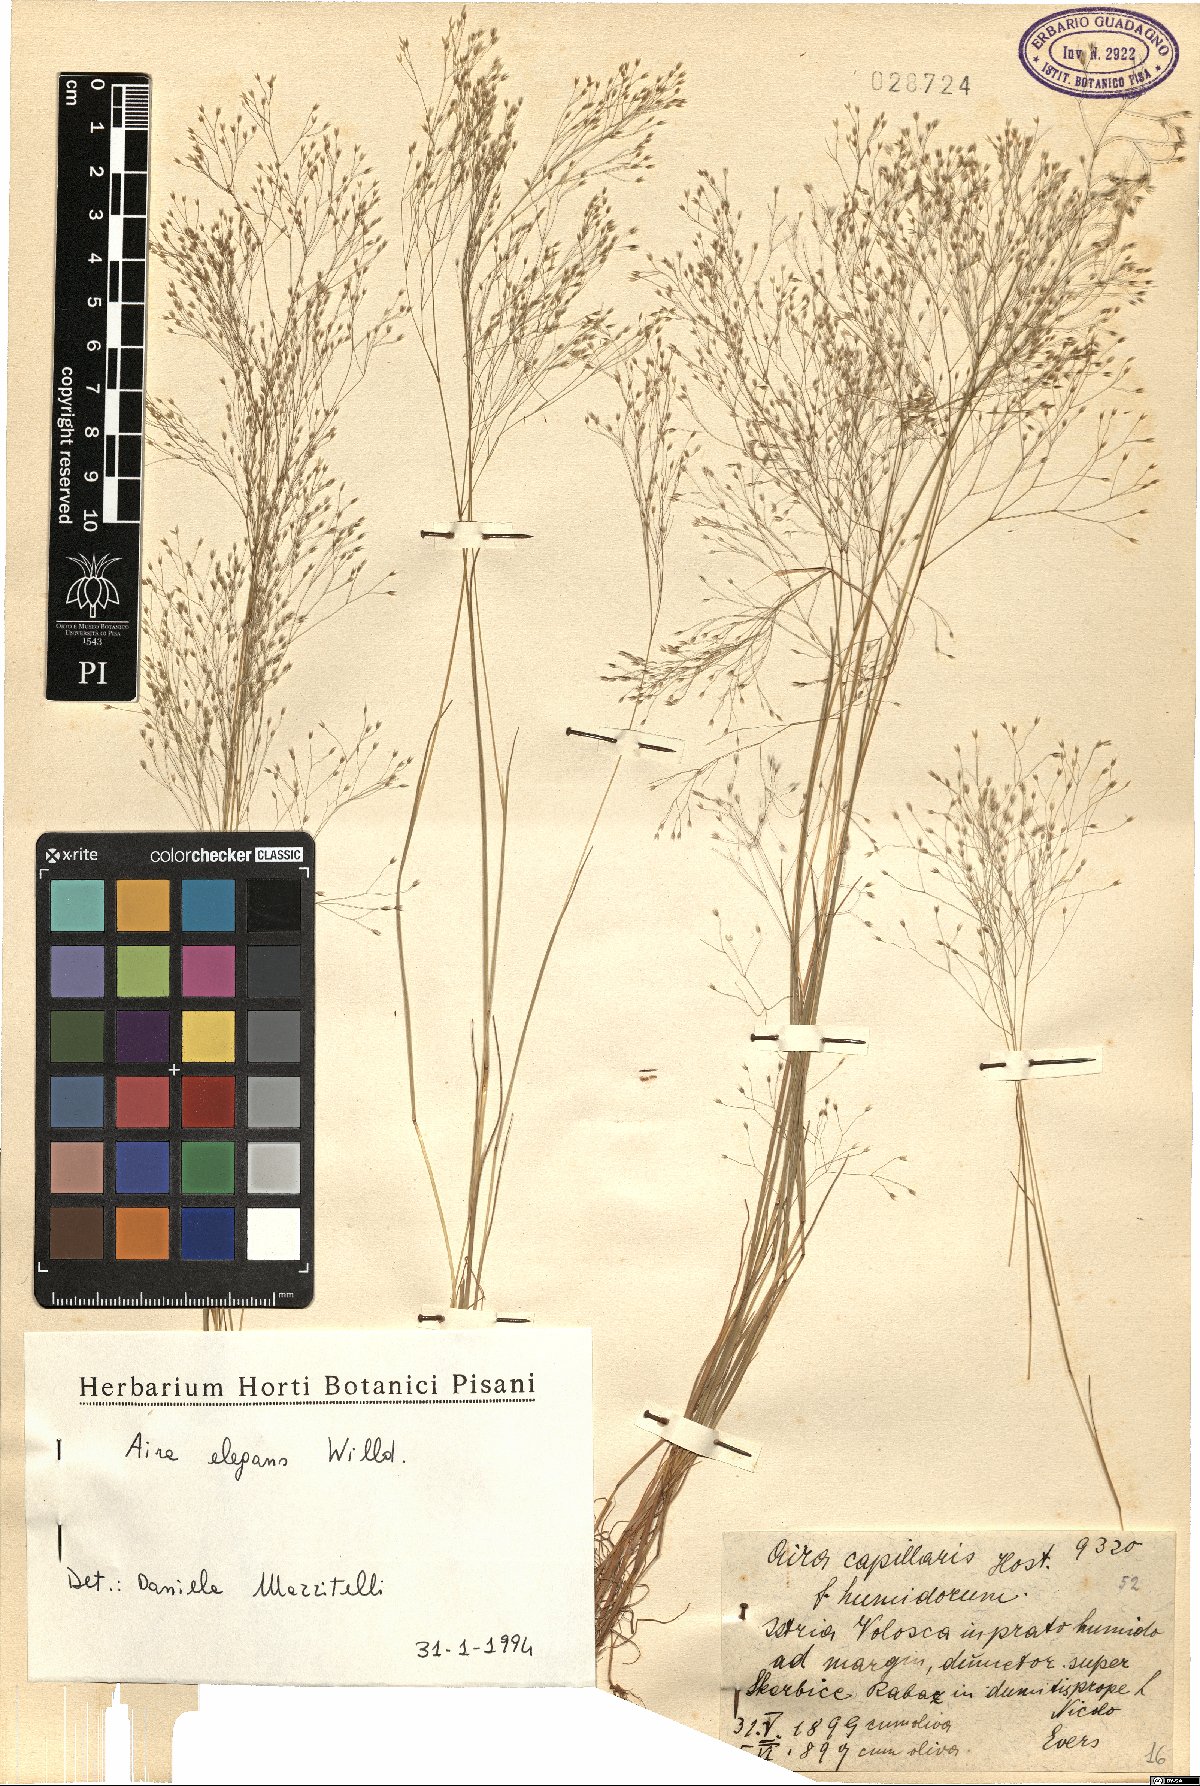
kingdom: Plantae
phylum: Tracheophyta
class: Liliopsida
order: Poales
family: Poaceae
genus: Aira
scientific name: Aira elegans
